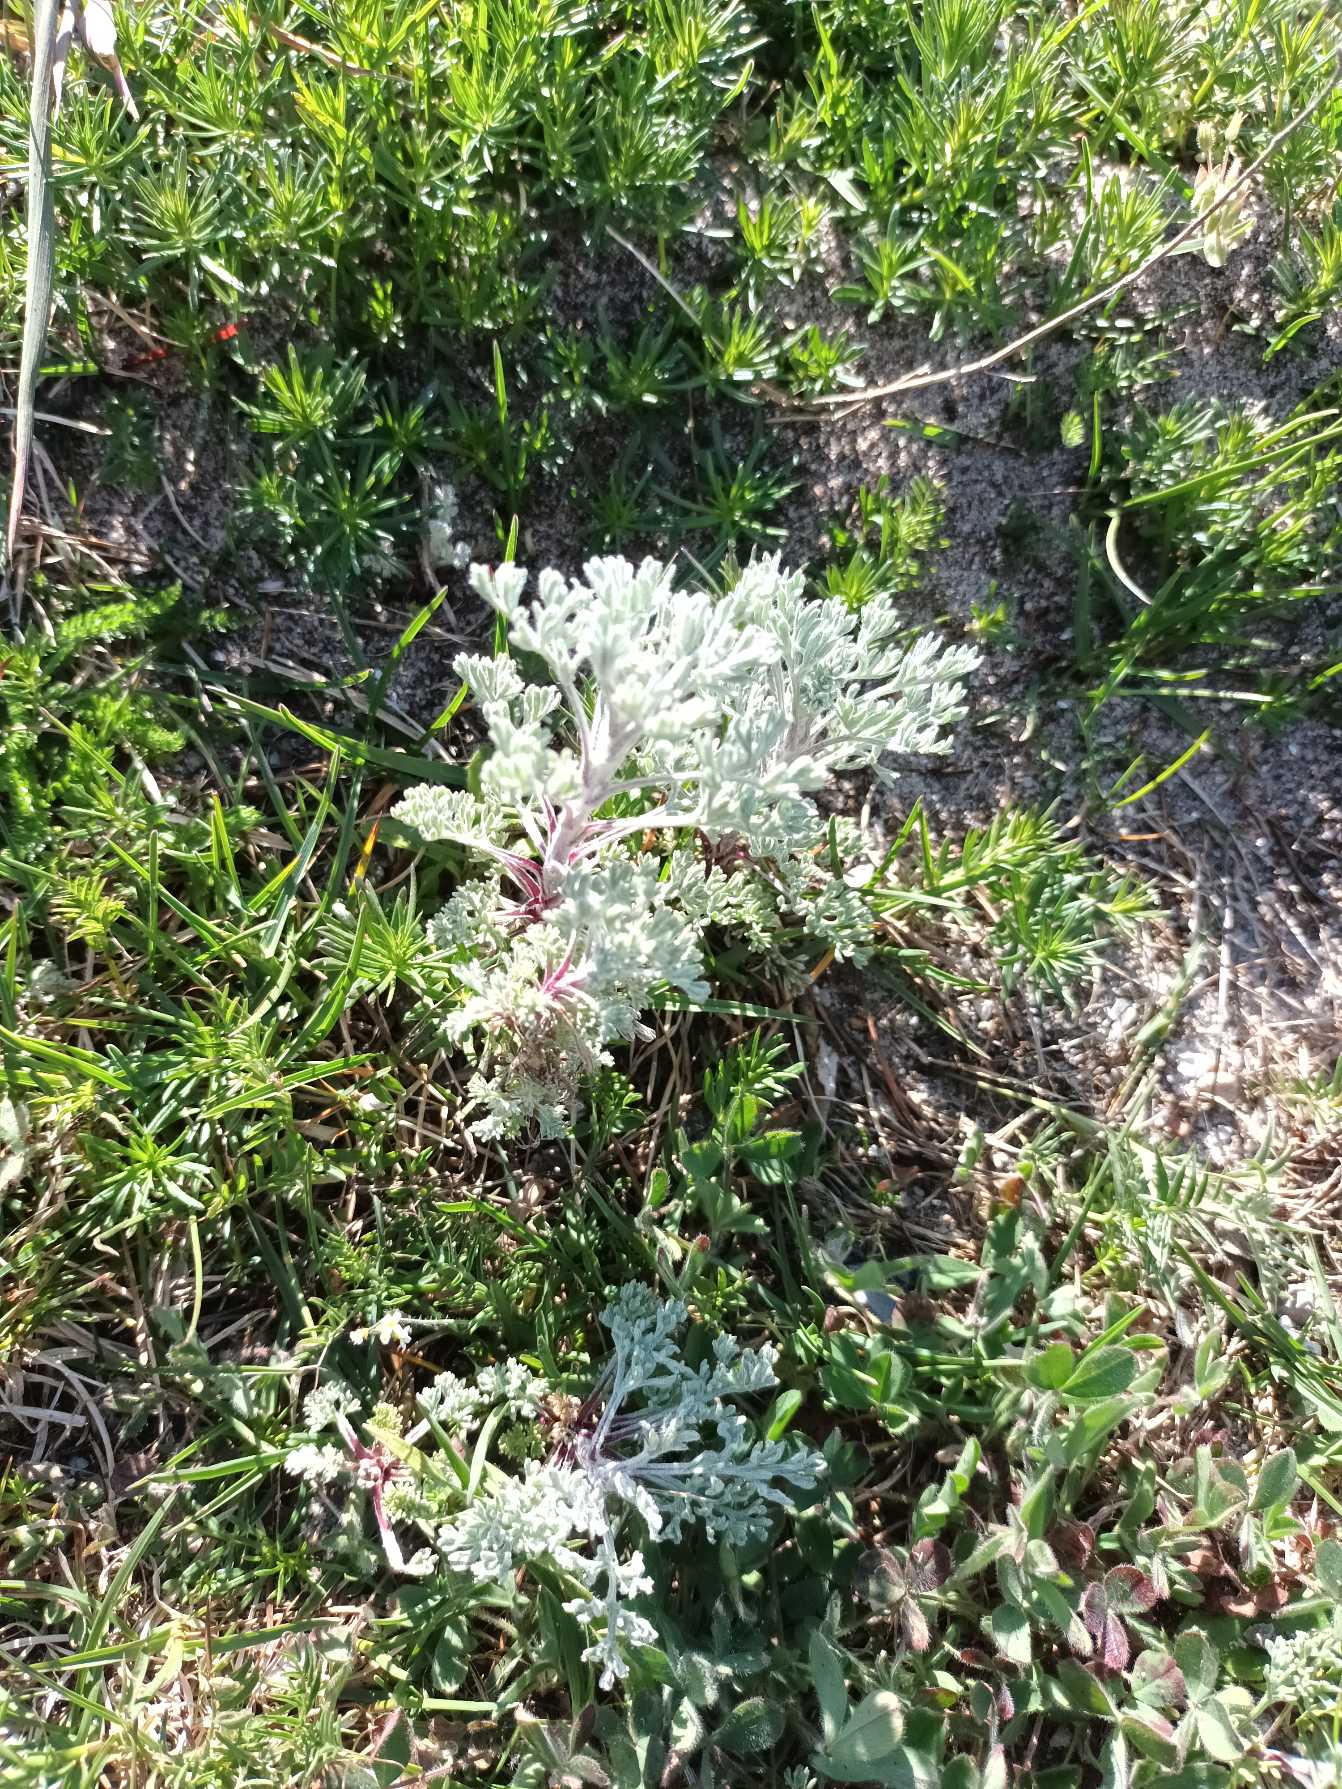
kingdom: Plantae
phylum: Tracheophyta
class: Magnoliopsida
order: Asterales
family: Asteraceae
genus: Artemisia
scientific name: Artemisia maritima
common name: Strandmalurt
